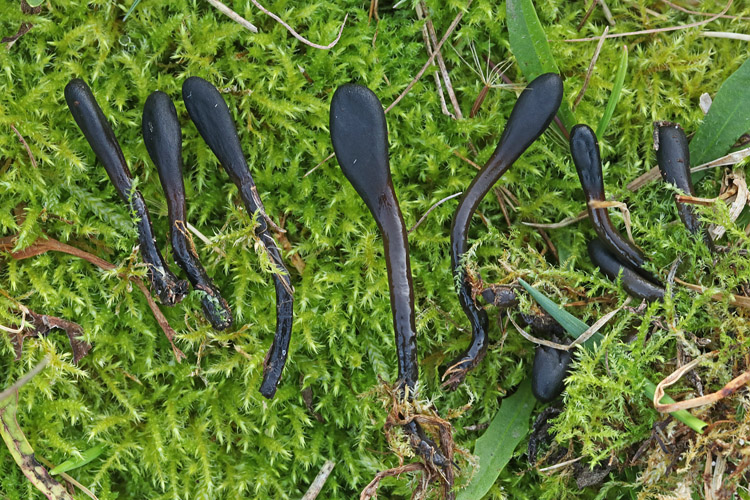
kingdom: Fungi
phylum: Ascomycota
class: Geoglossomycetes
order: Geoglossales
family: Geoglossaceae
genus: Glutinoglossum
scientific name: Glutinoglossum glutinosum
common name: slimet jordtunge
